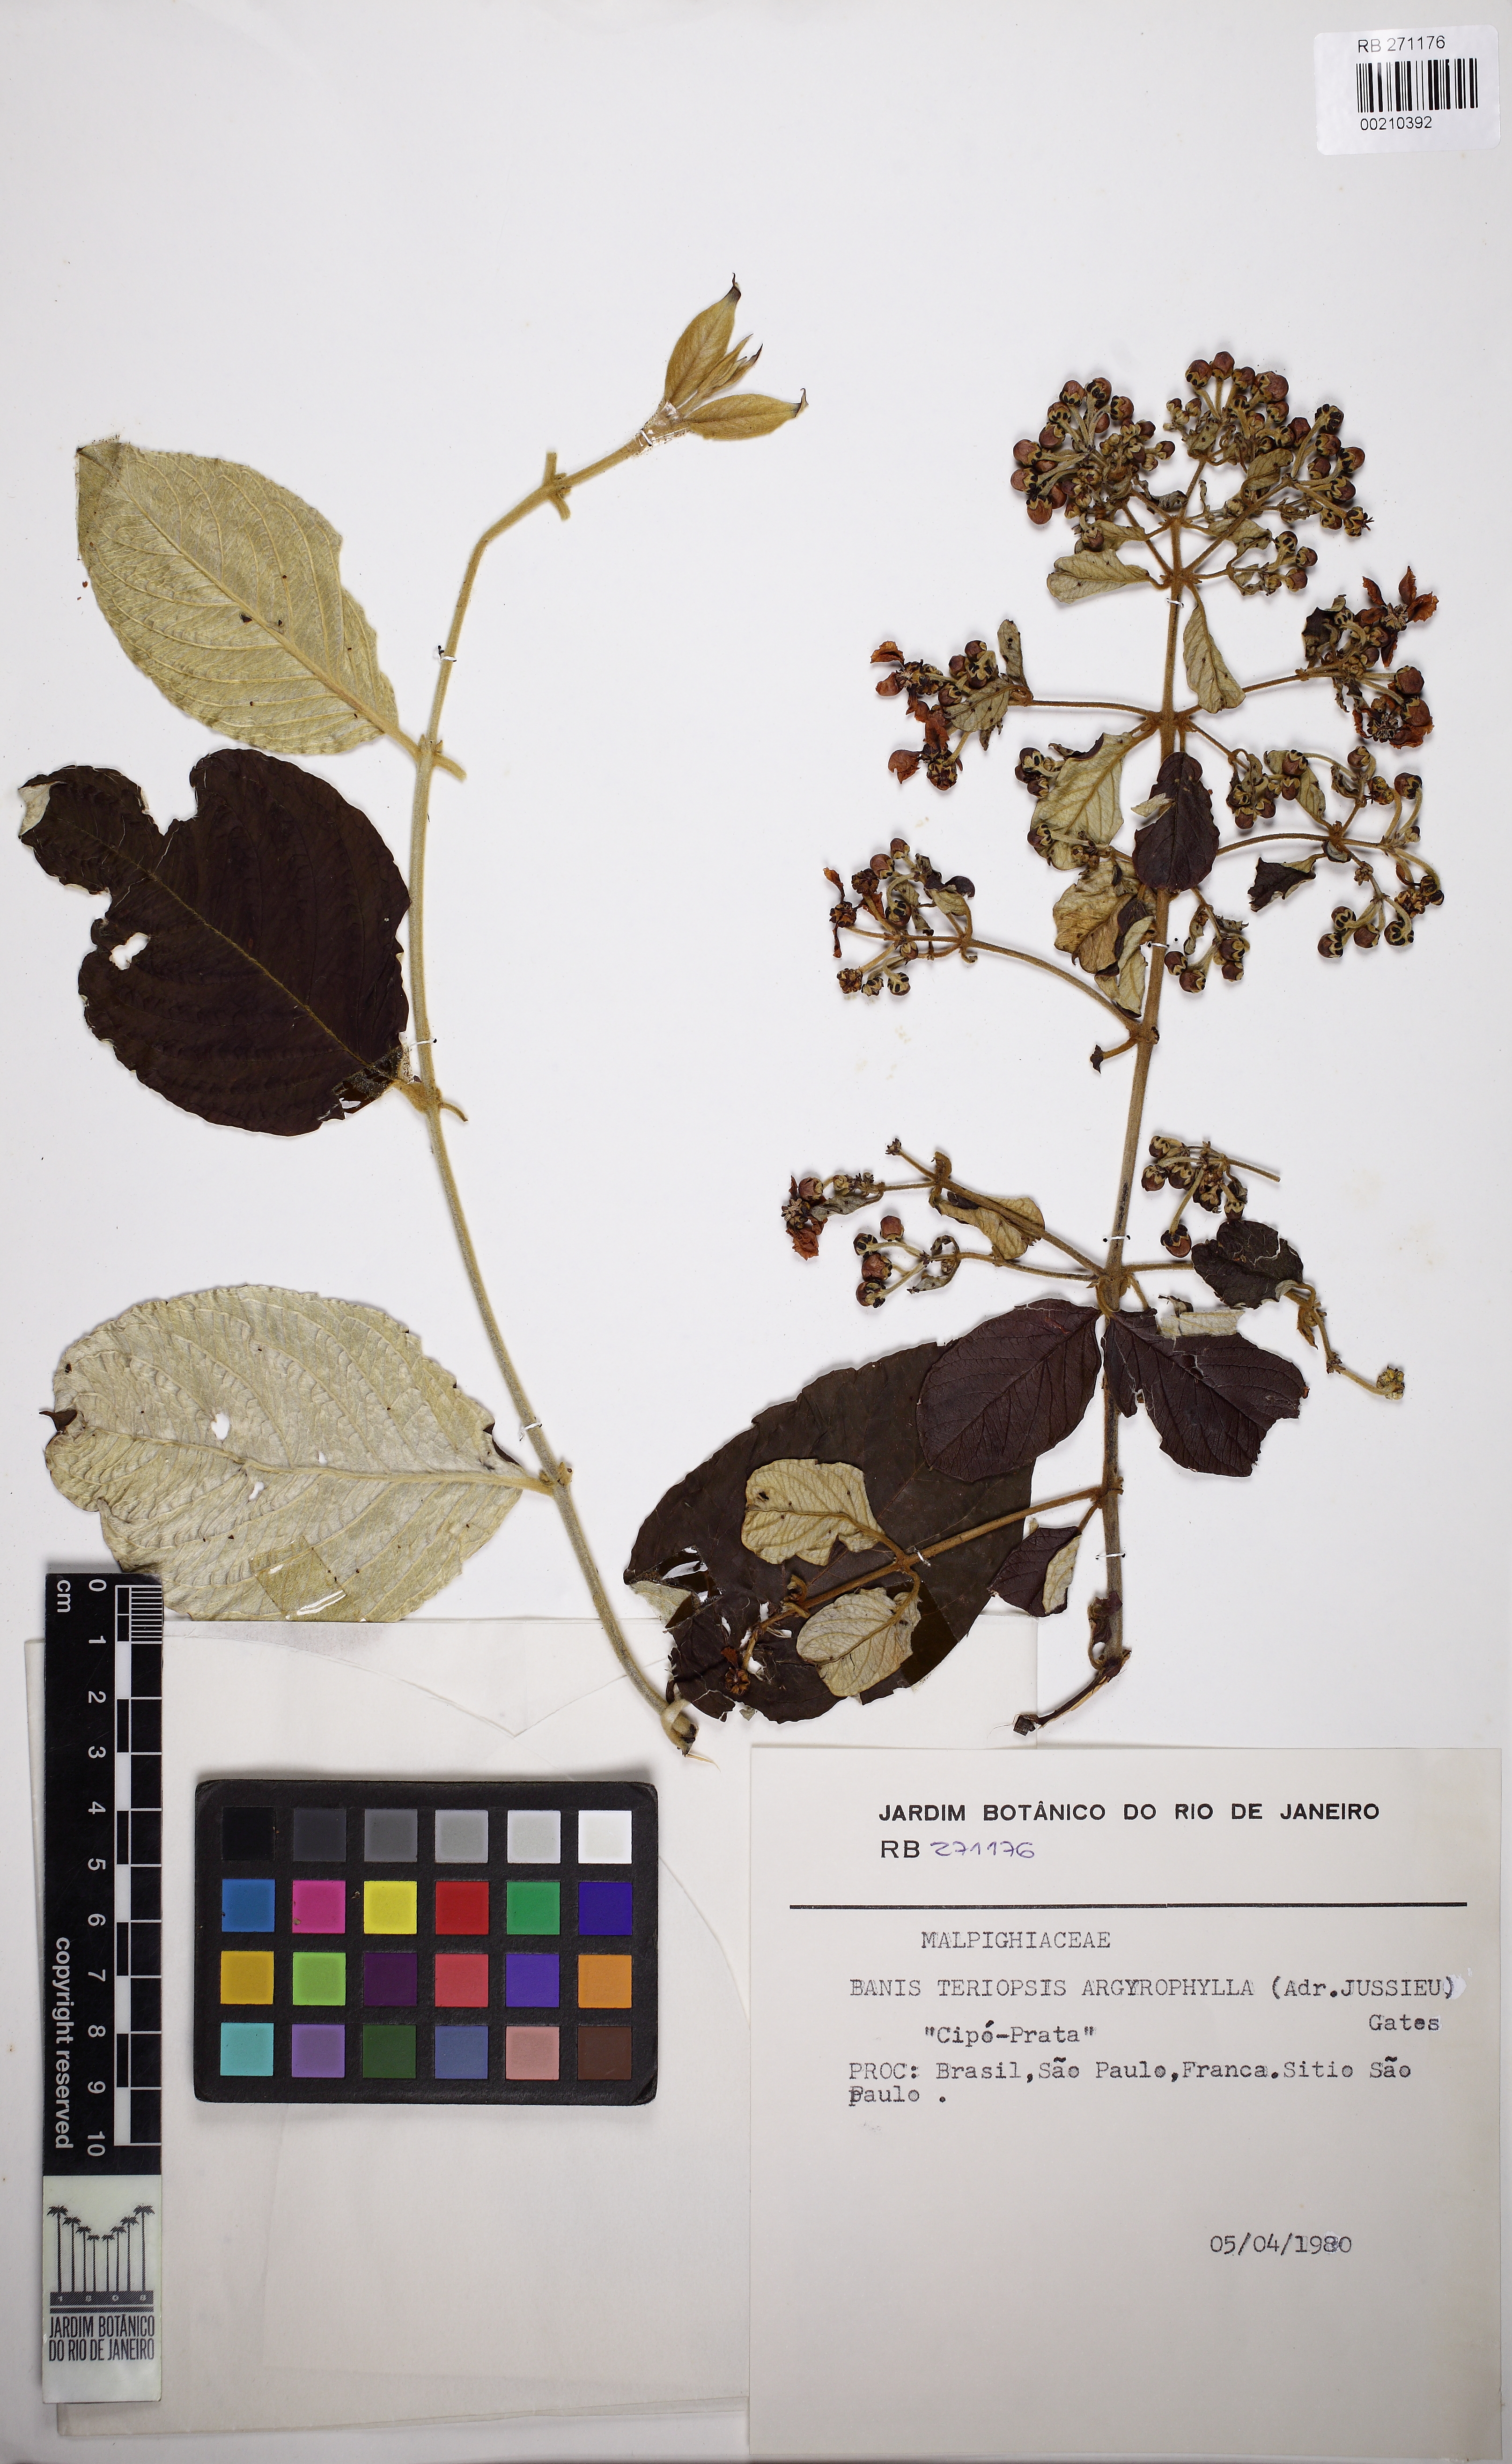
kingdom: Plantae
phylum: Tracheophyta
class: Magnoliopsida
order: Malpighiales
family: Malpighiaceae
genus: Banisteriopsis
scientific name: Banisteriopsis argyrophylla
